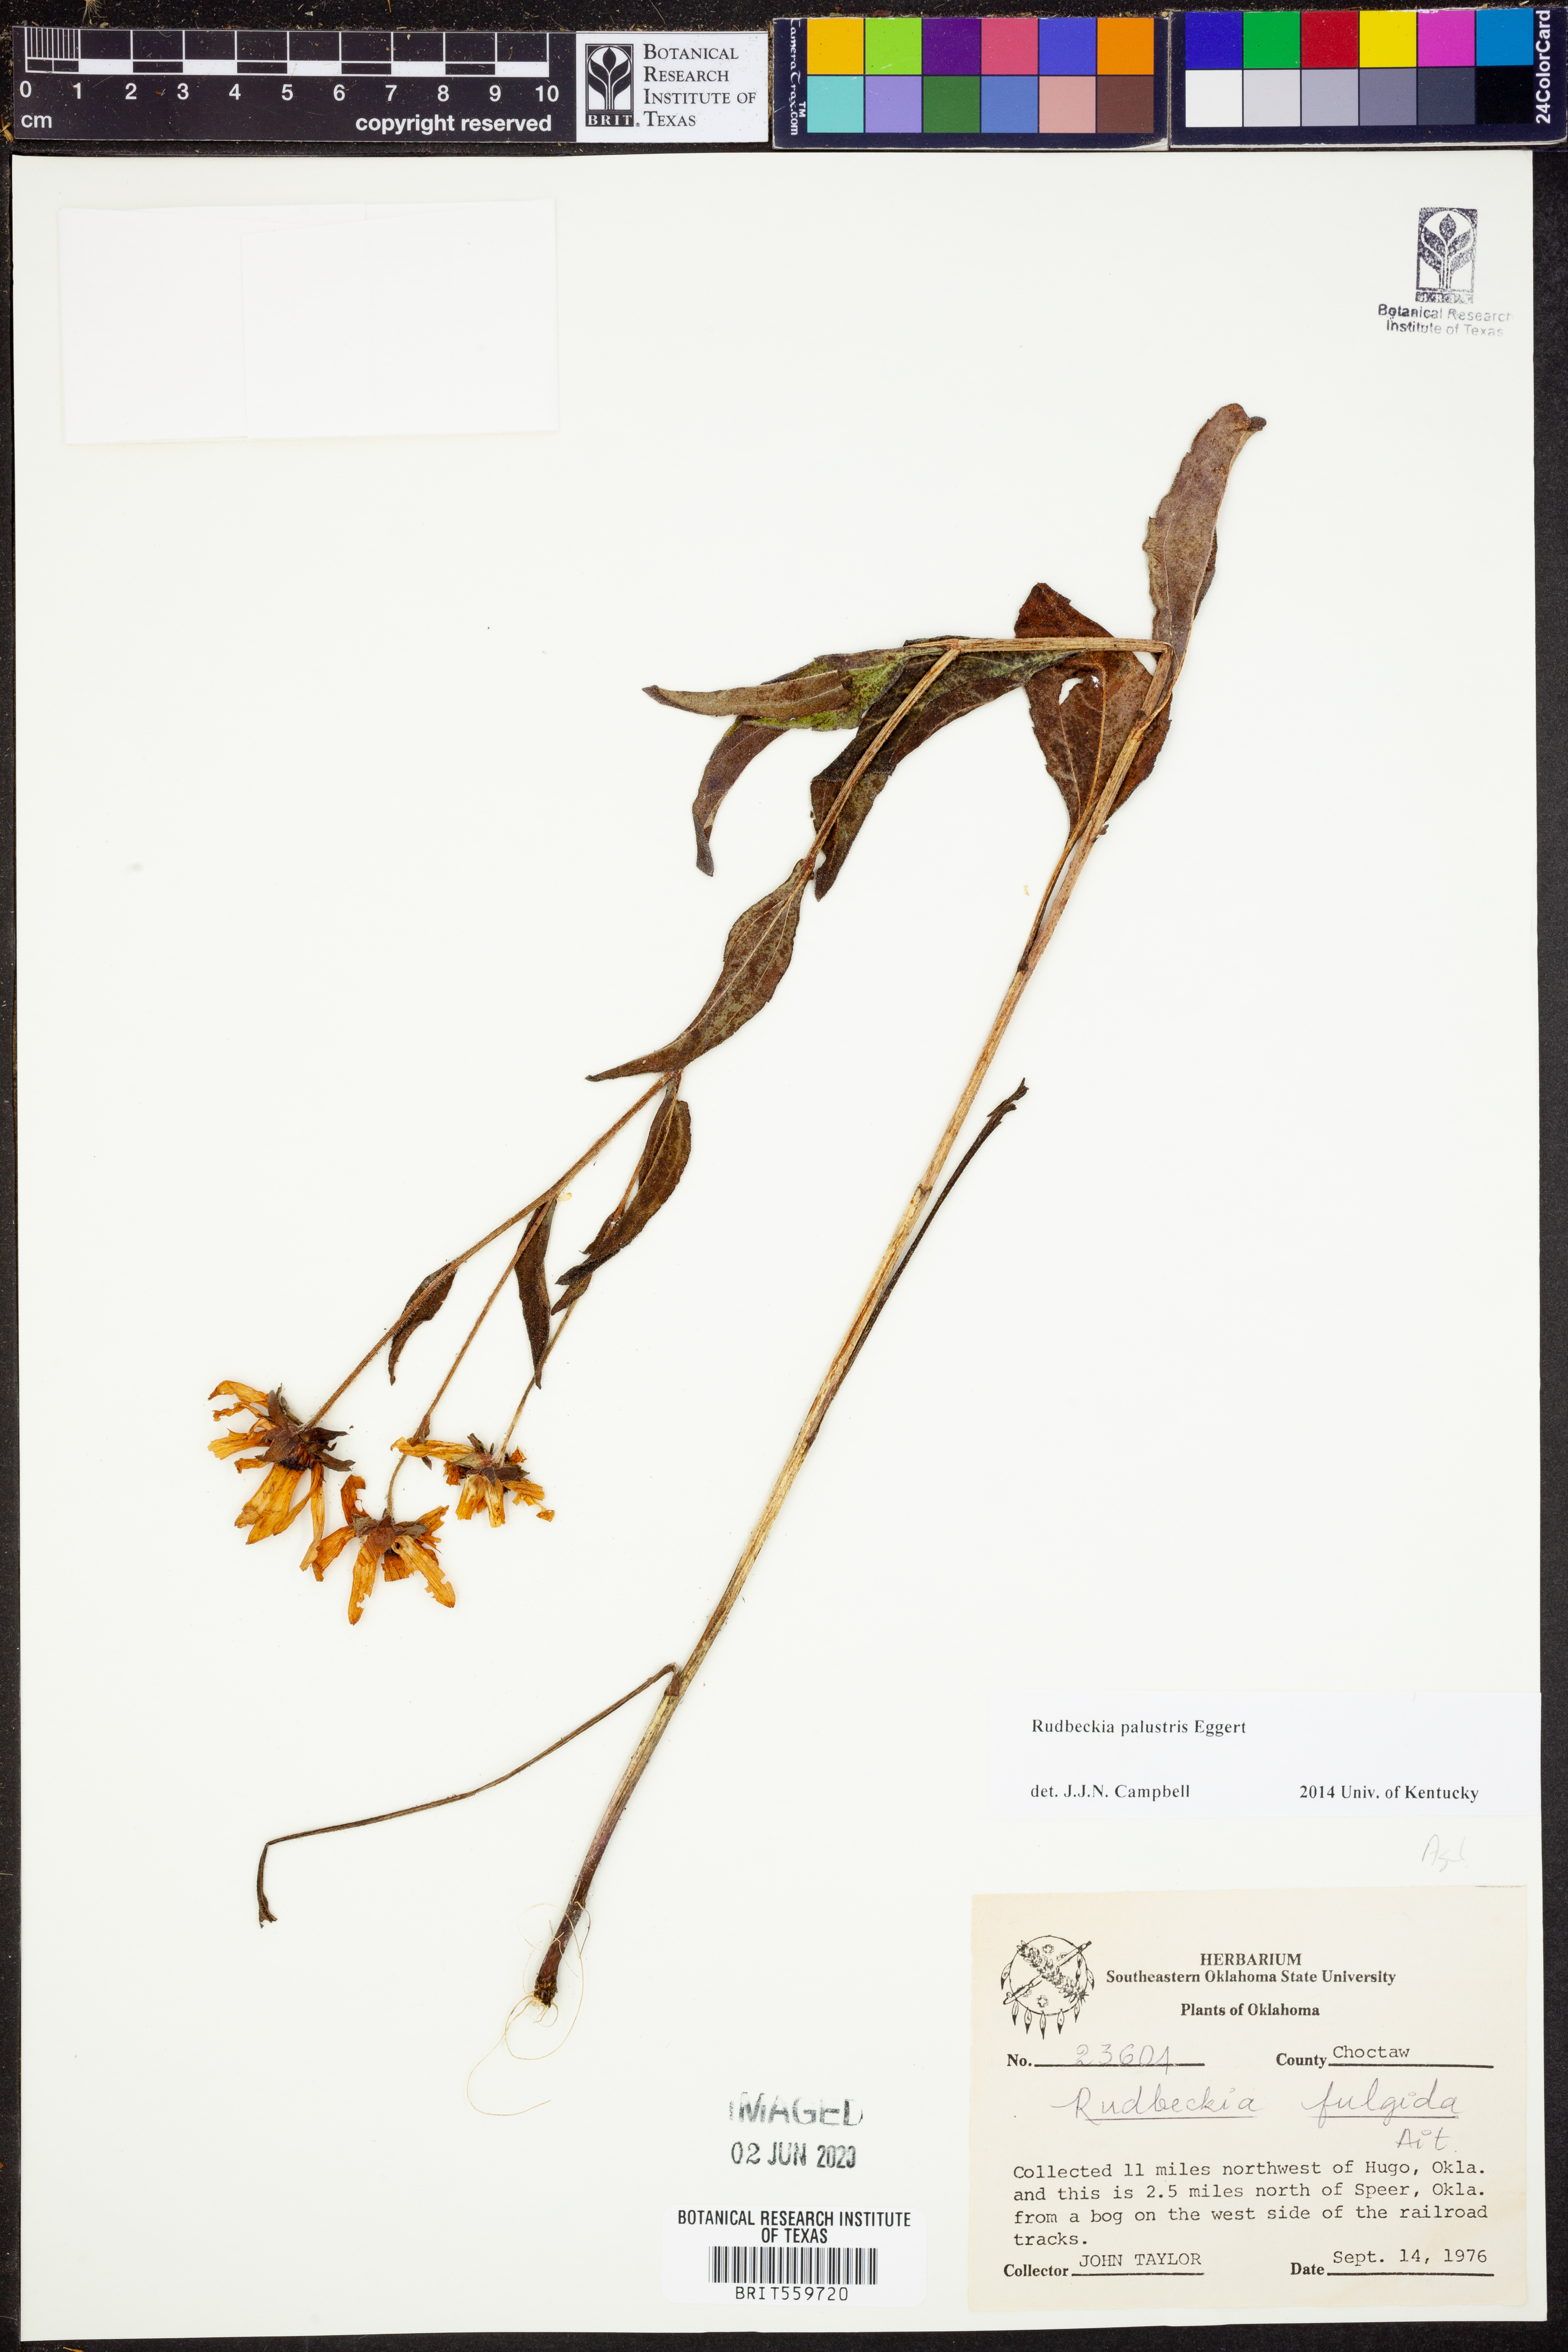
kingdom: Plantae
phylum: Tracheophyta
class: Magnoliopsida
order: Asterales
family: Asteraceae
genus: Rudbeckia
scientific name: Rudbeckia palustris
